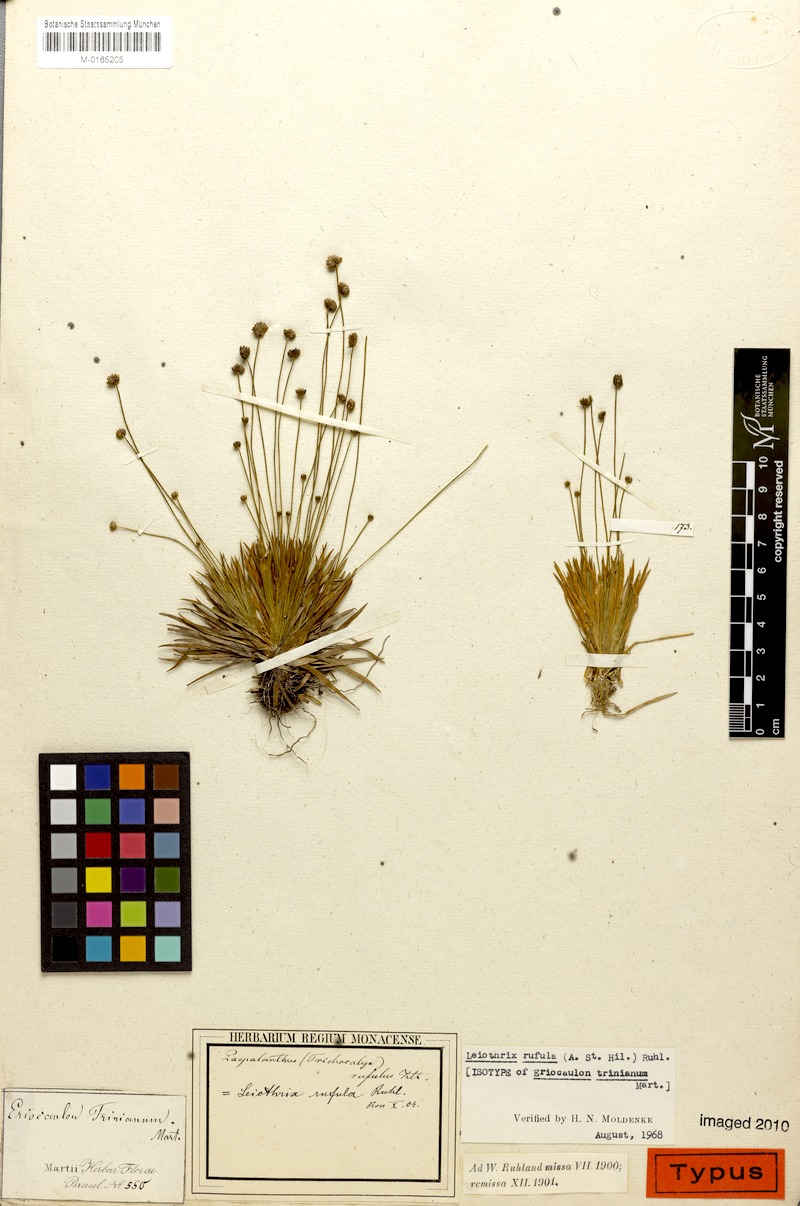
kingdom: Plantae
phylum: Tracheophyta
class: Liliopsida
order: Poales
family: Eriocaulaceae
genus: Leiothrix
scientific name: Leiothrix rufula
